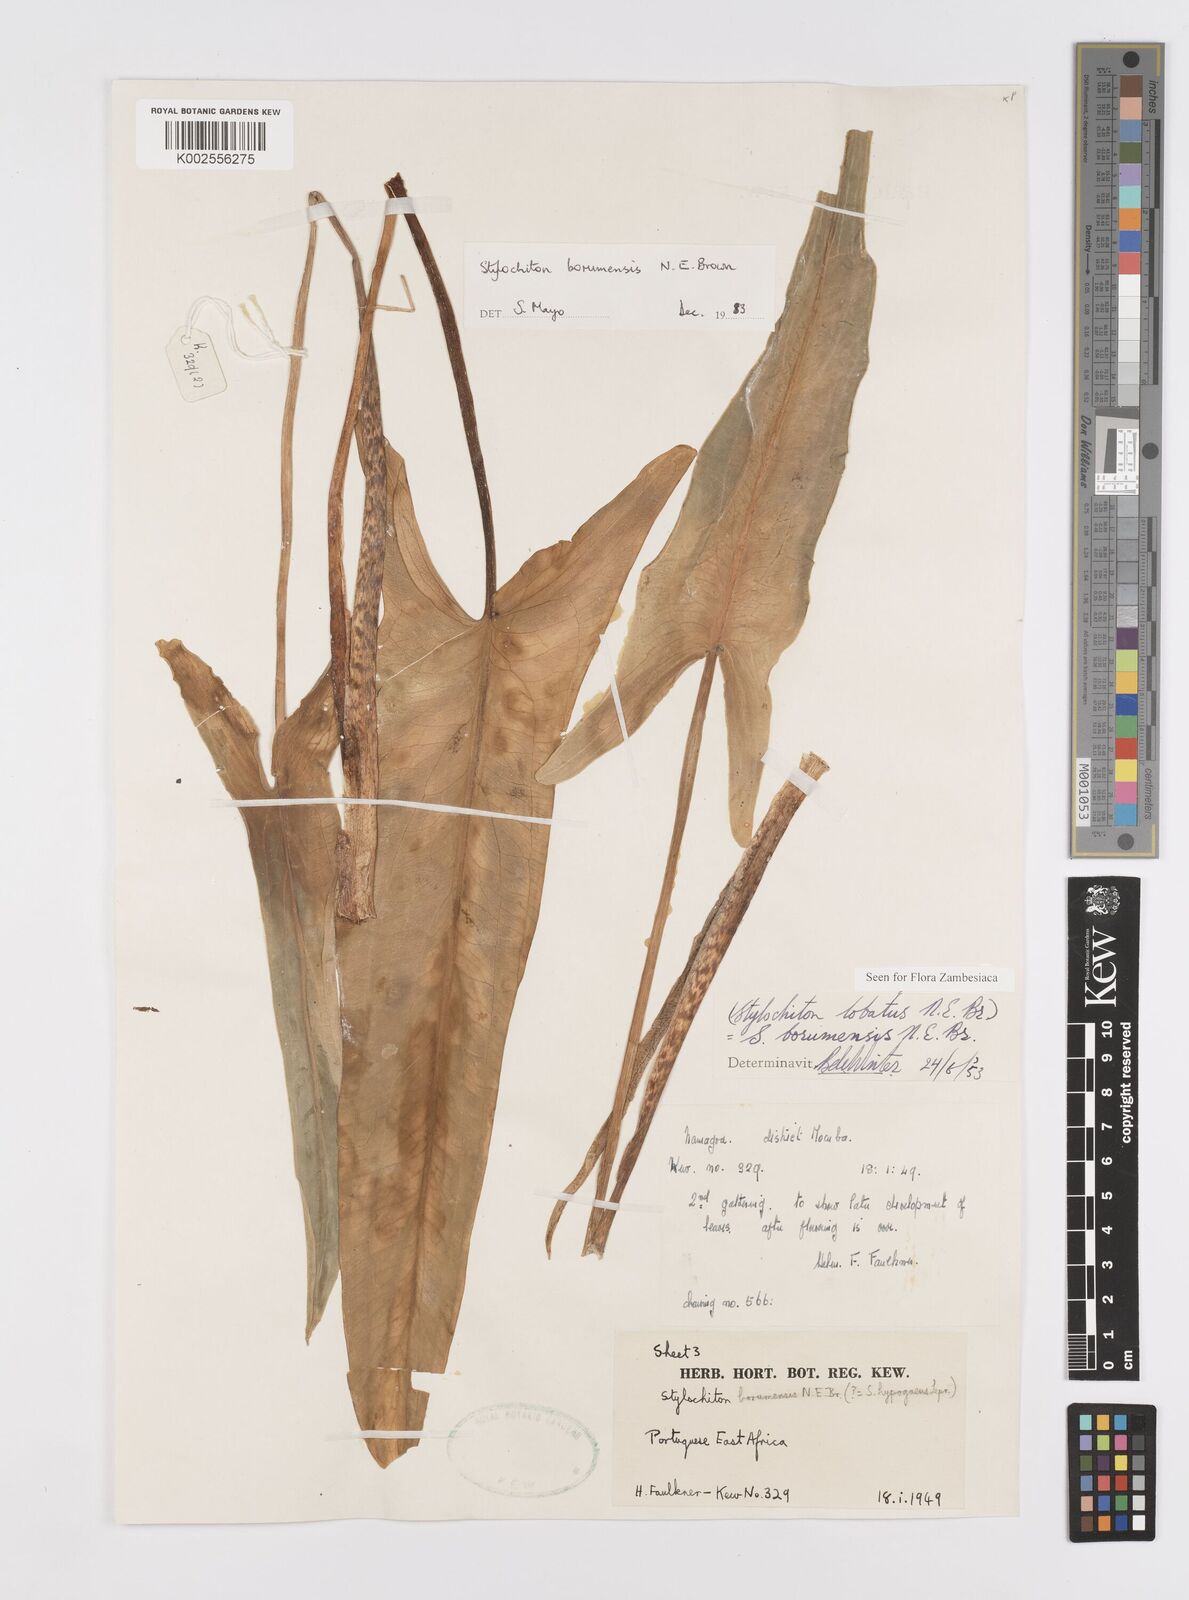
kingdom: Plantae
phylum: Tracheophyta
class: Liliopsida
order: Alismatales
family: Araceae
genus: Stylochaeton
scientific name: Stylochaeton borumense
